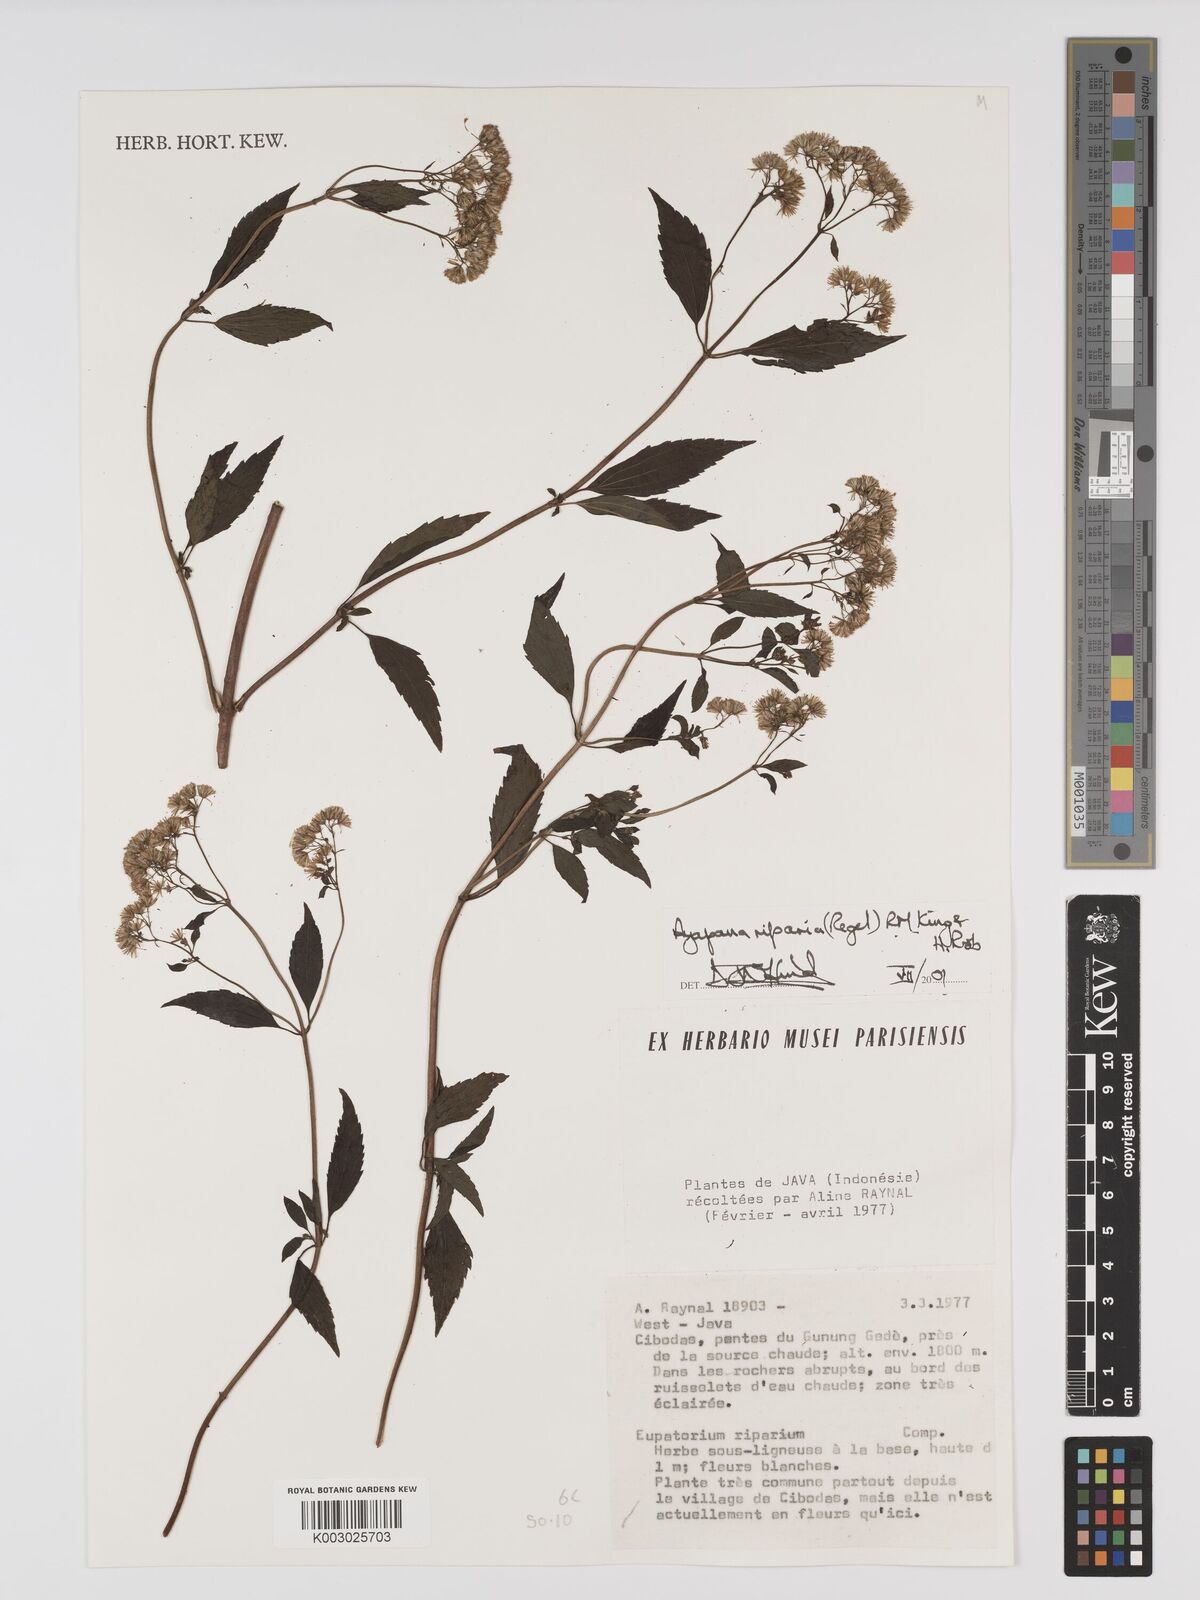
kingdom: Plantae
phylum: Tracheophyta
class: Magnoliopsida
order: Asterales
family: Asteraceae
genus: Ayapana
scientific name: Ayapana
